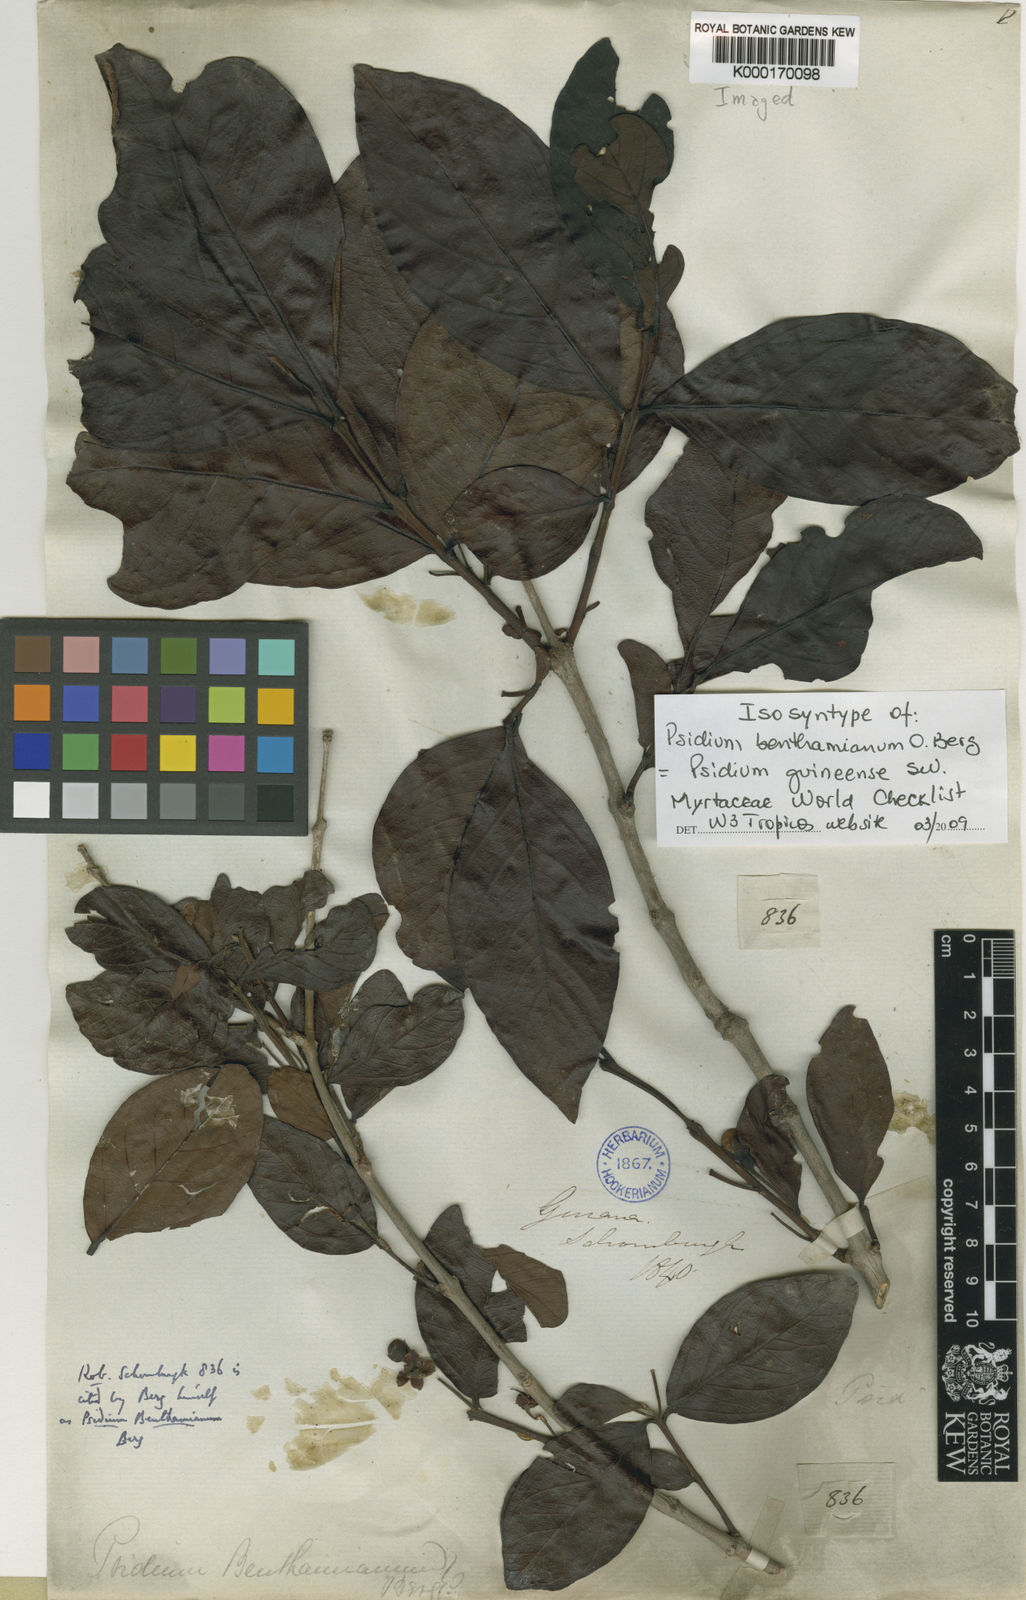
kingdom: Plantae
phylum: Tracheophyta
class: Magnoliopsida
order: Myrtales
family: Myrtaceae
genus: Psidium
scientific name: Psidium guineense
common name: Brazilian guava
